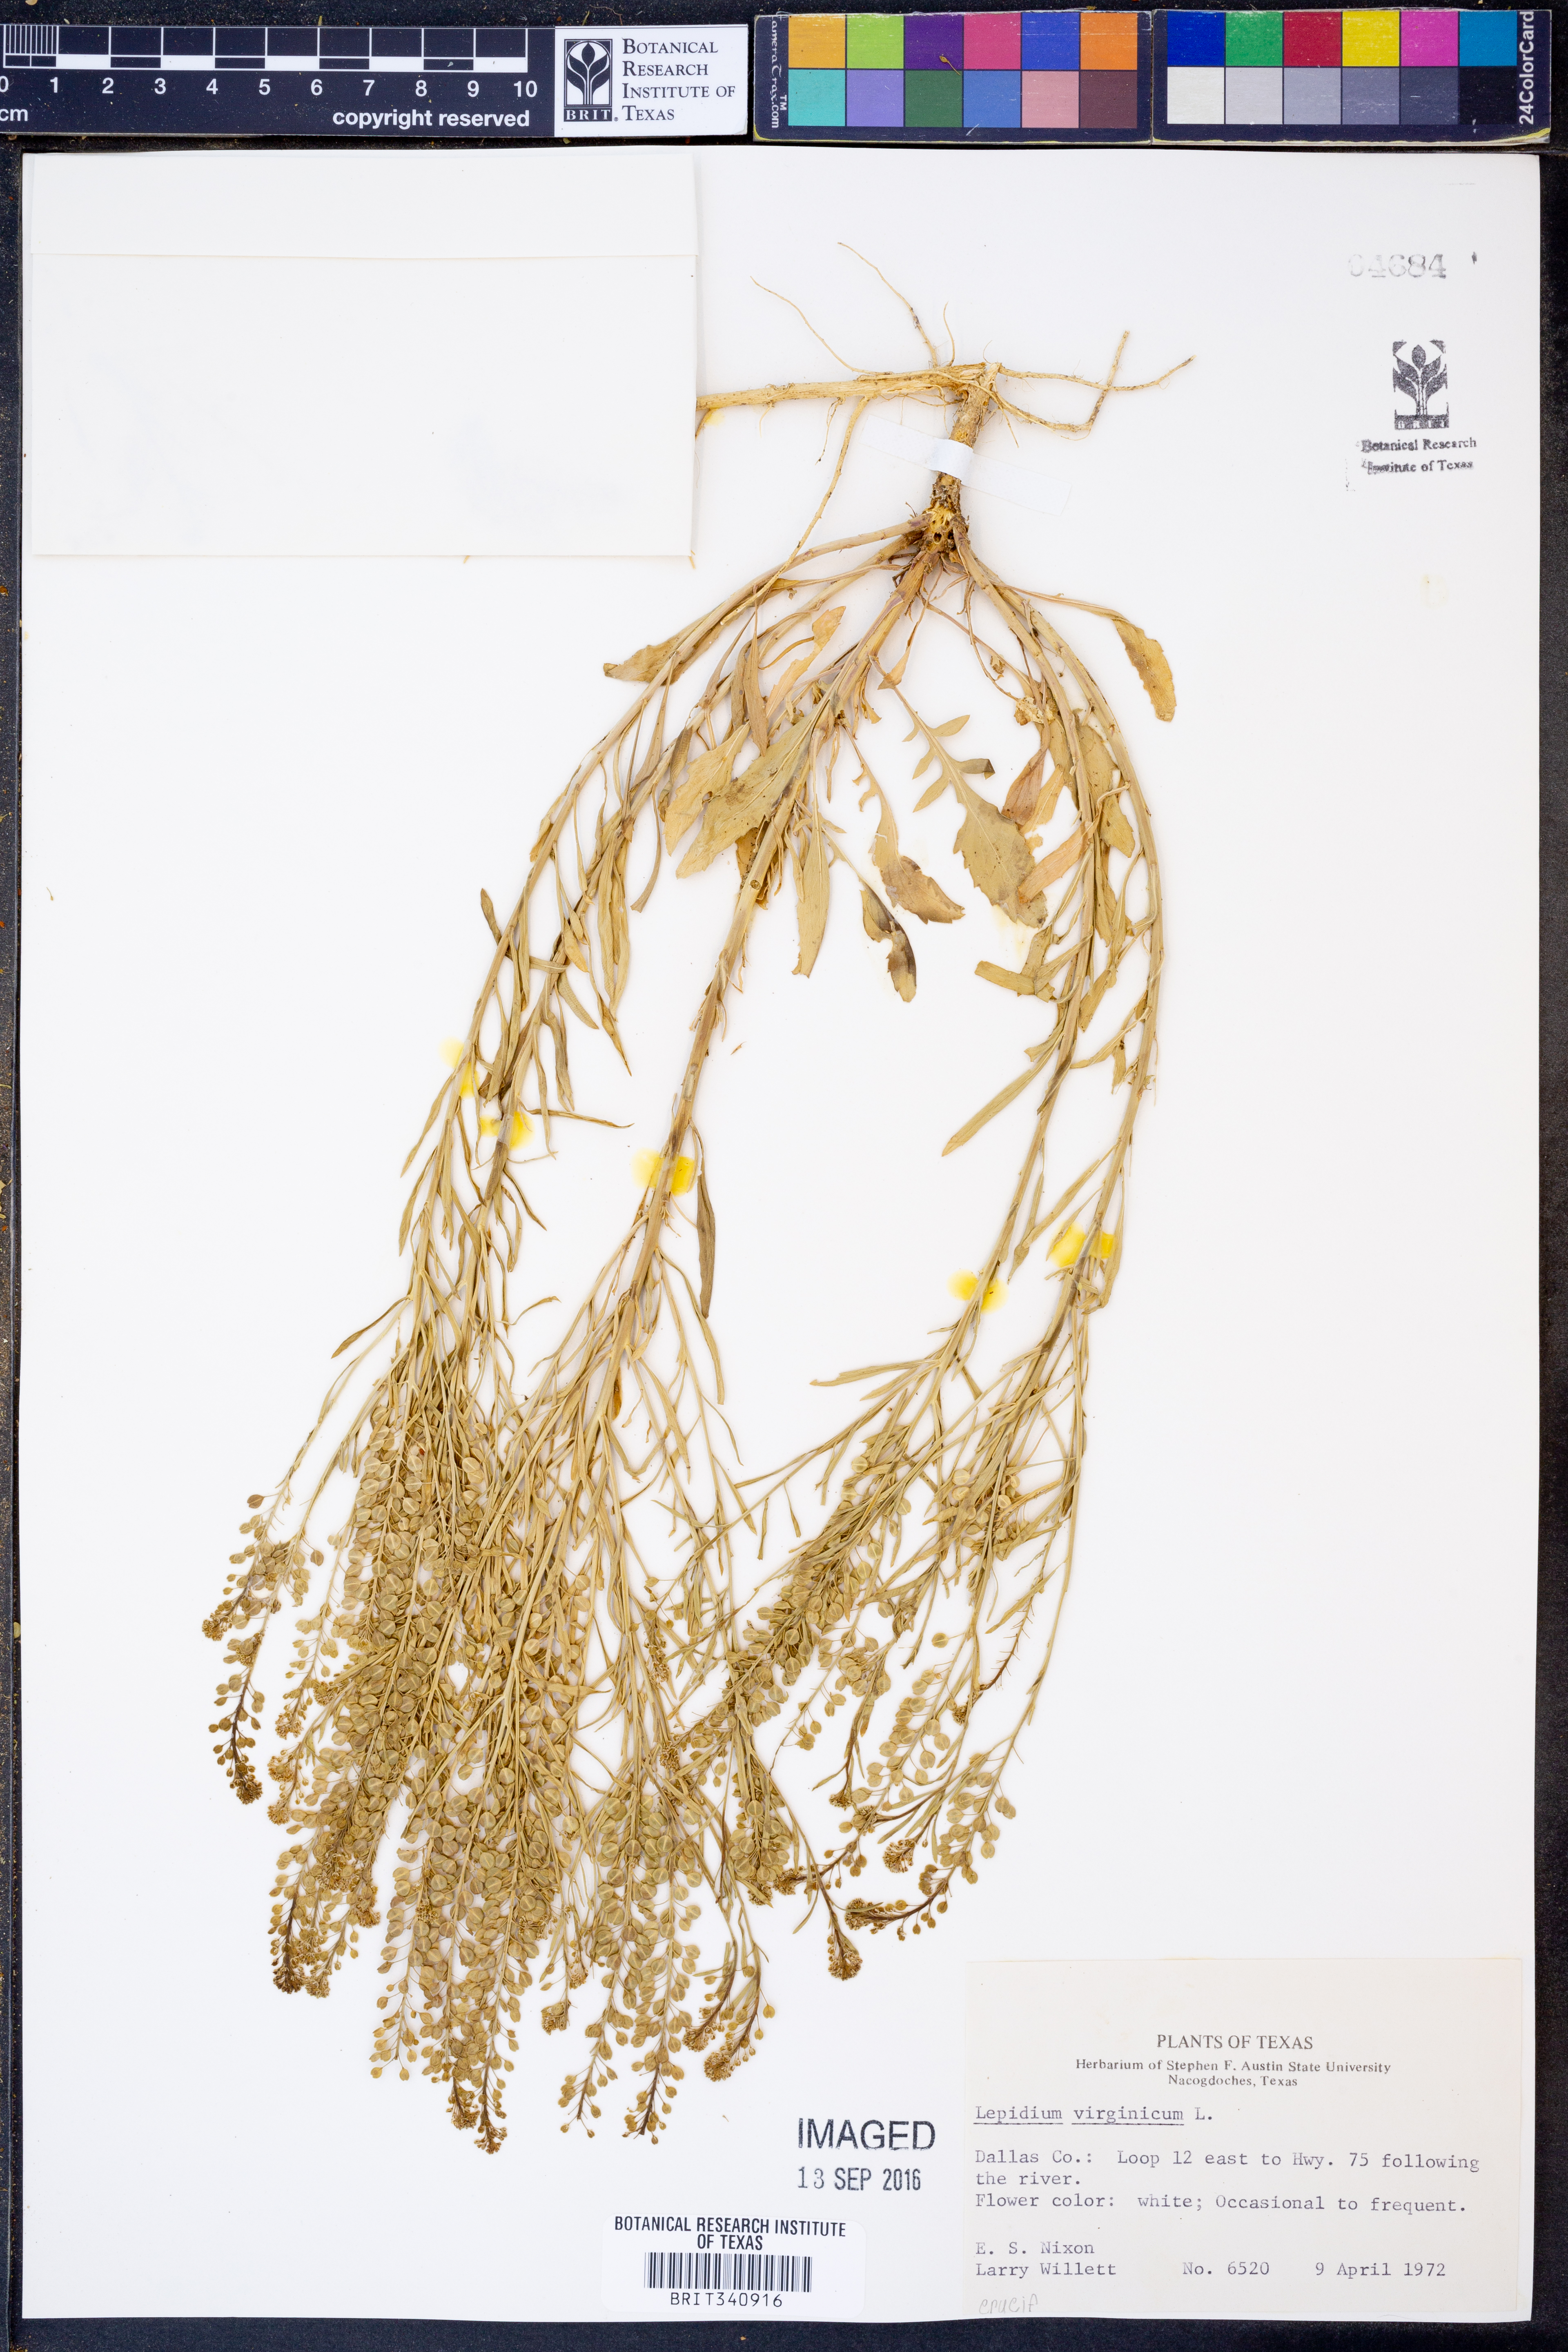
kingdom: Plantae
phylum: Tracheophyta
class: Magnoliopsida
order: Brassicales
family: Brassicaceae
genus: Lepidium
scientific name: Lepidium virginicum
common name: Least pepperwort
